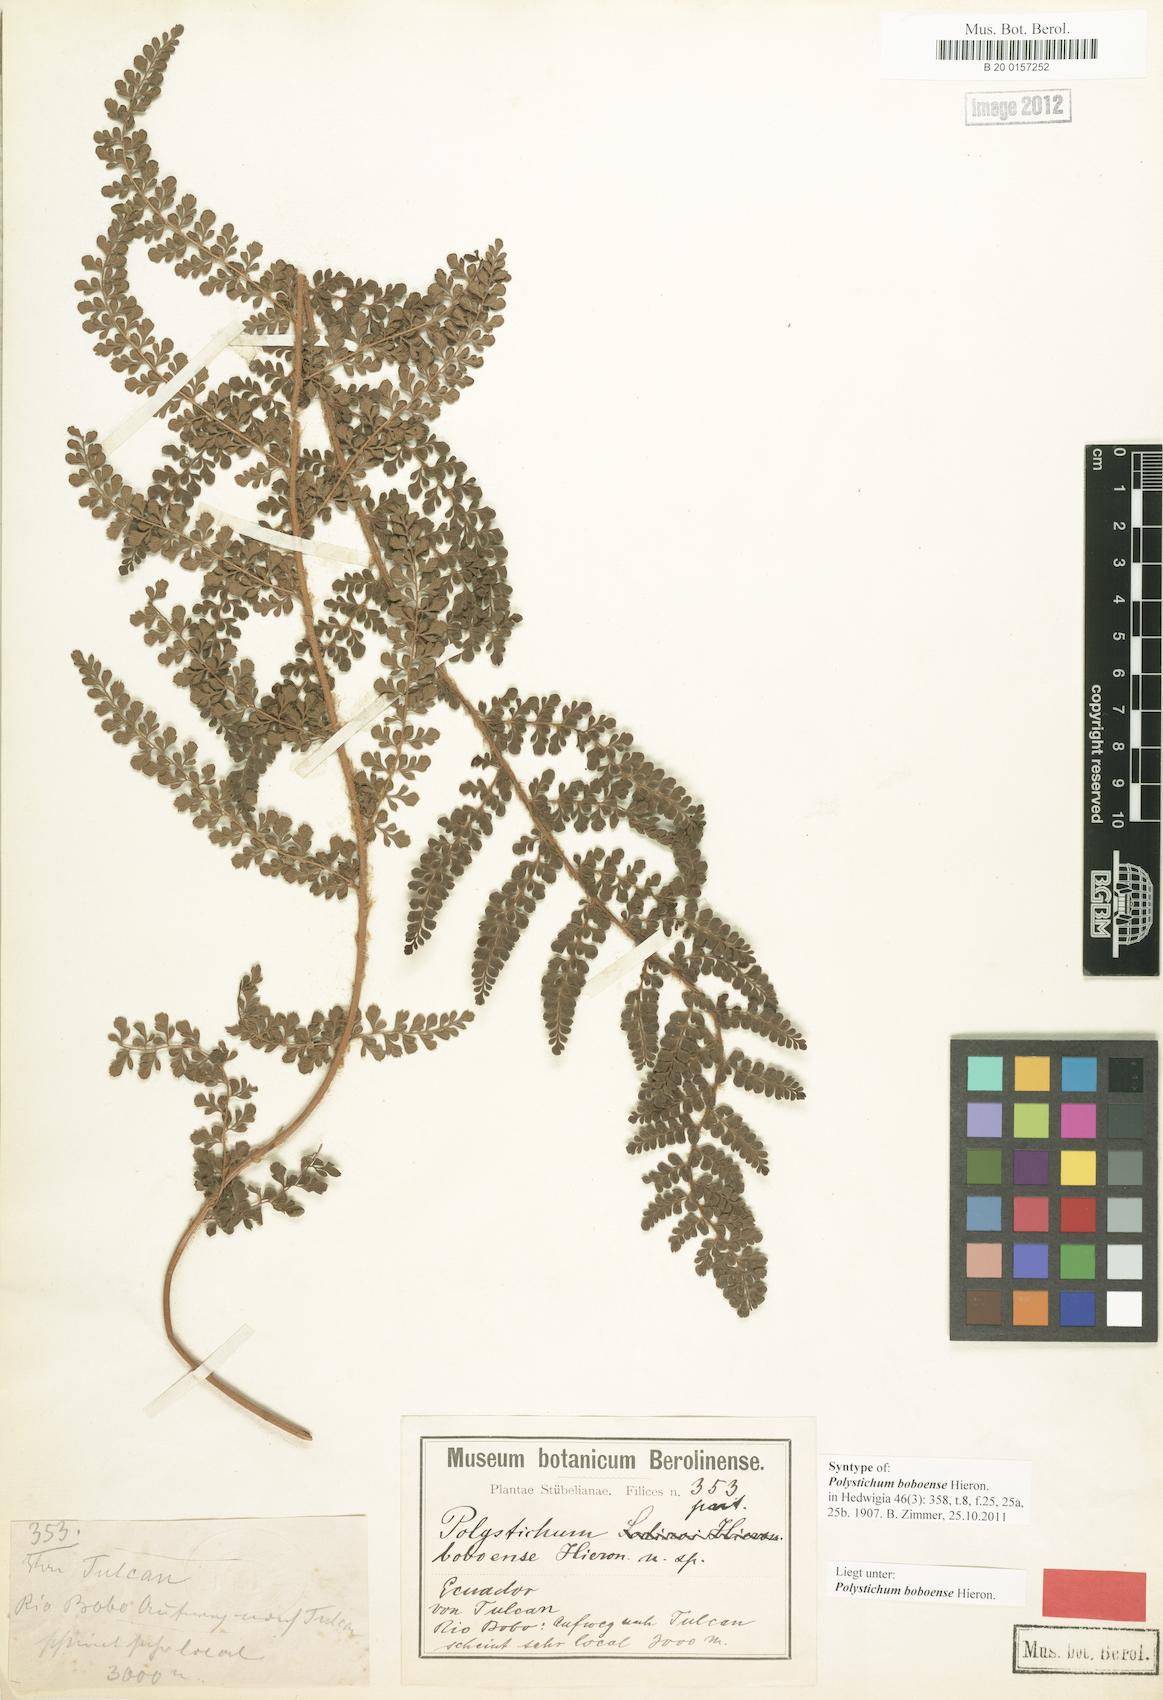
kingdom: Plantae
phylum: Tracheophyta
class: Polypodiopsida
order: Polypodiales
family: Dryopteridaceae
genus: Polystichum
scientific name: Polystichum boboense
